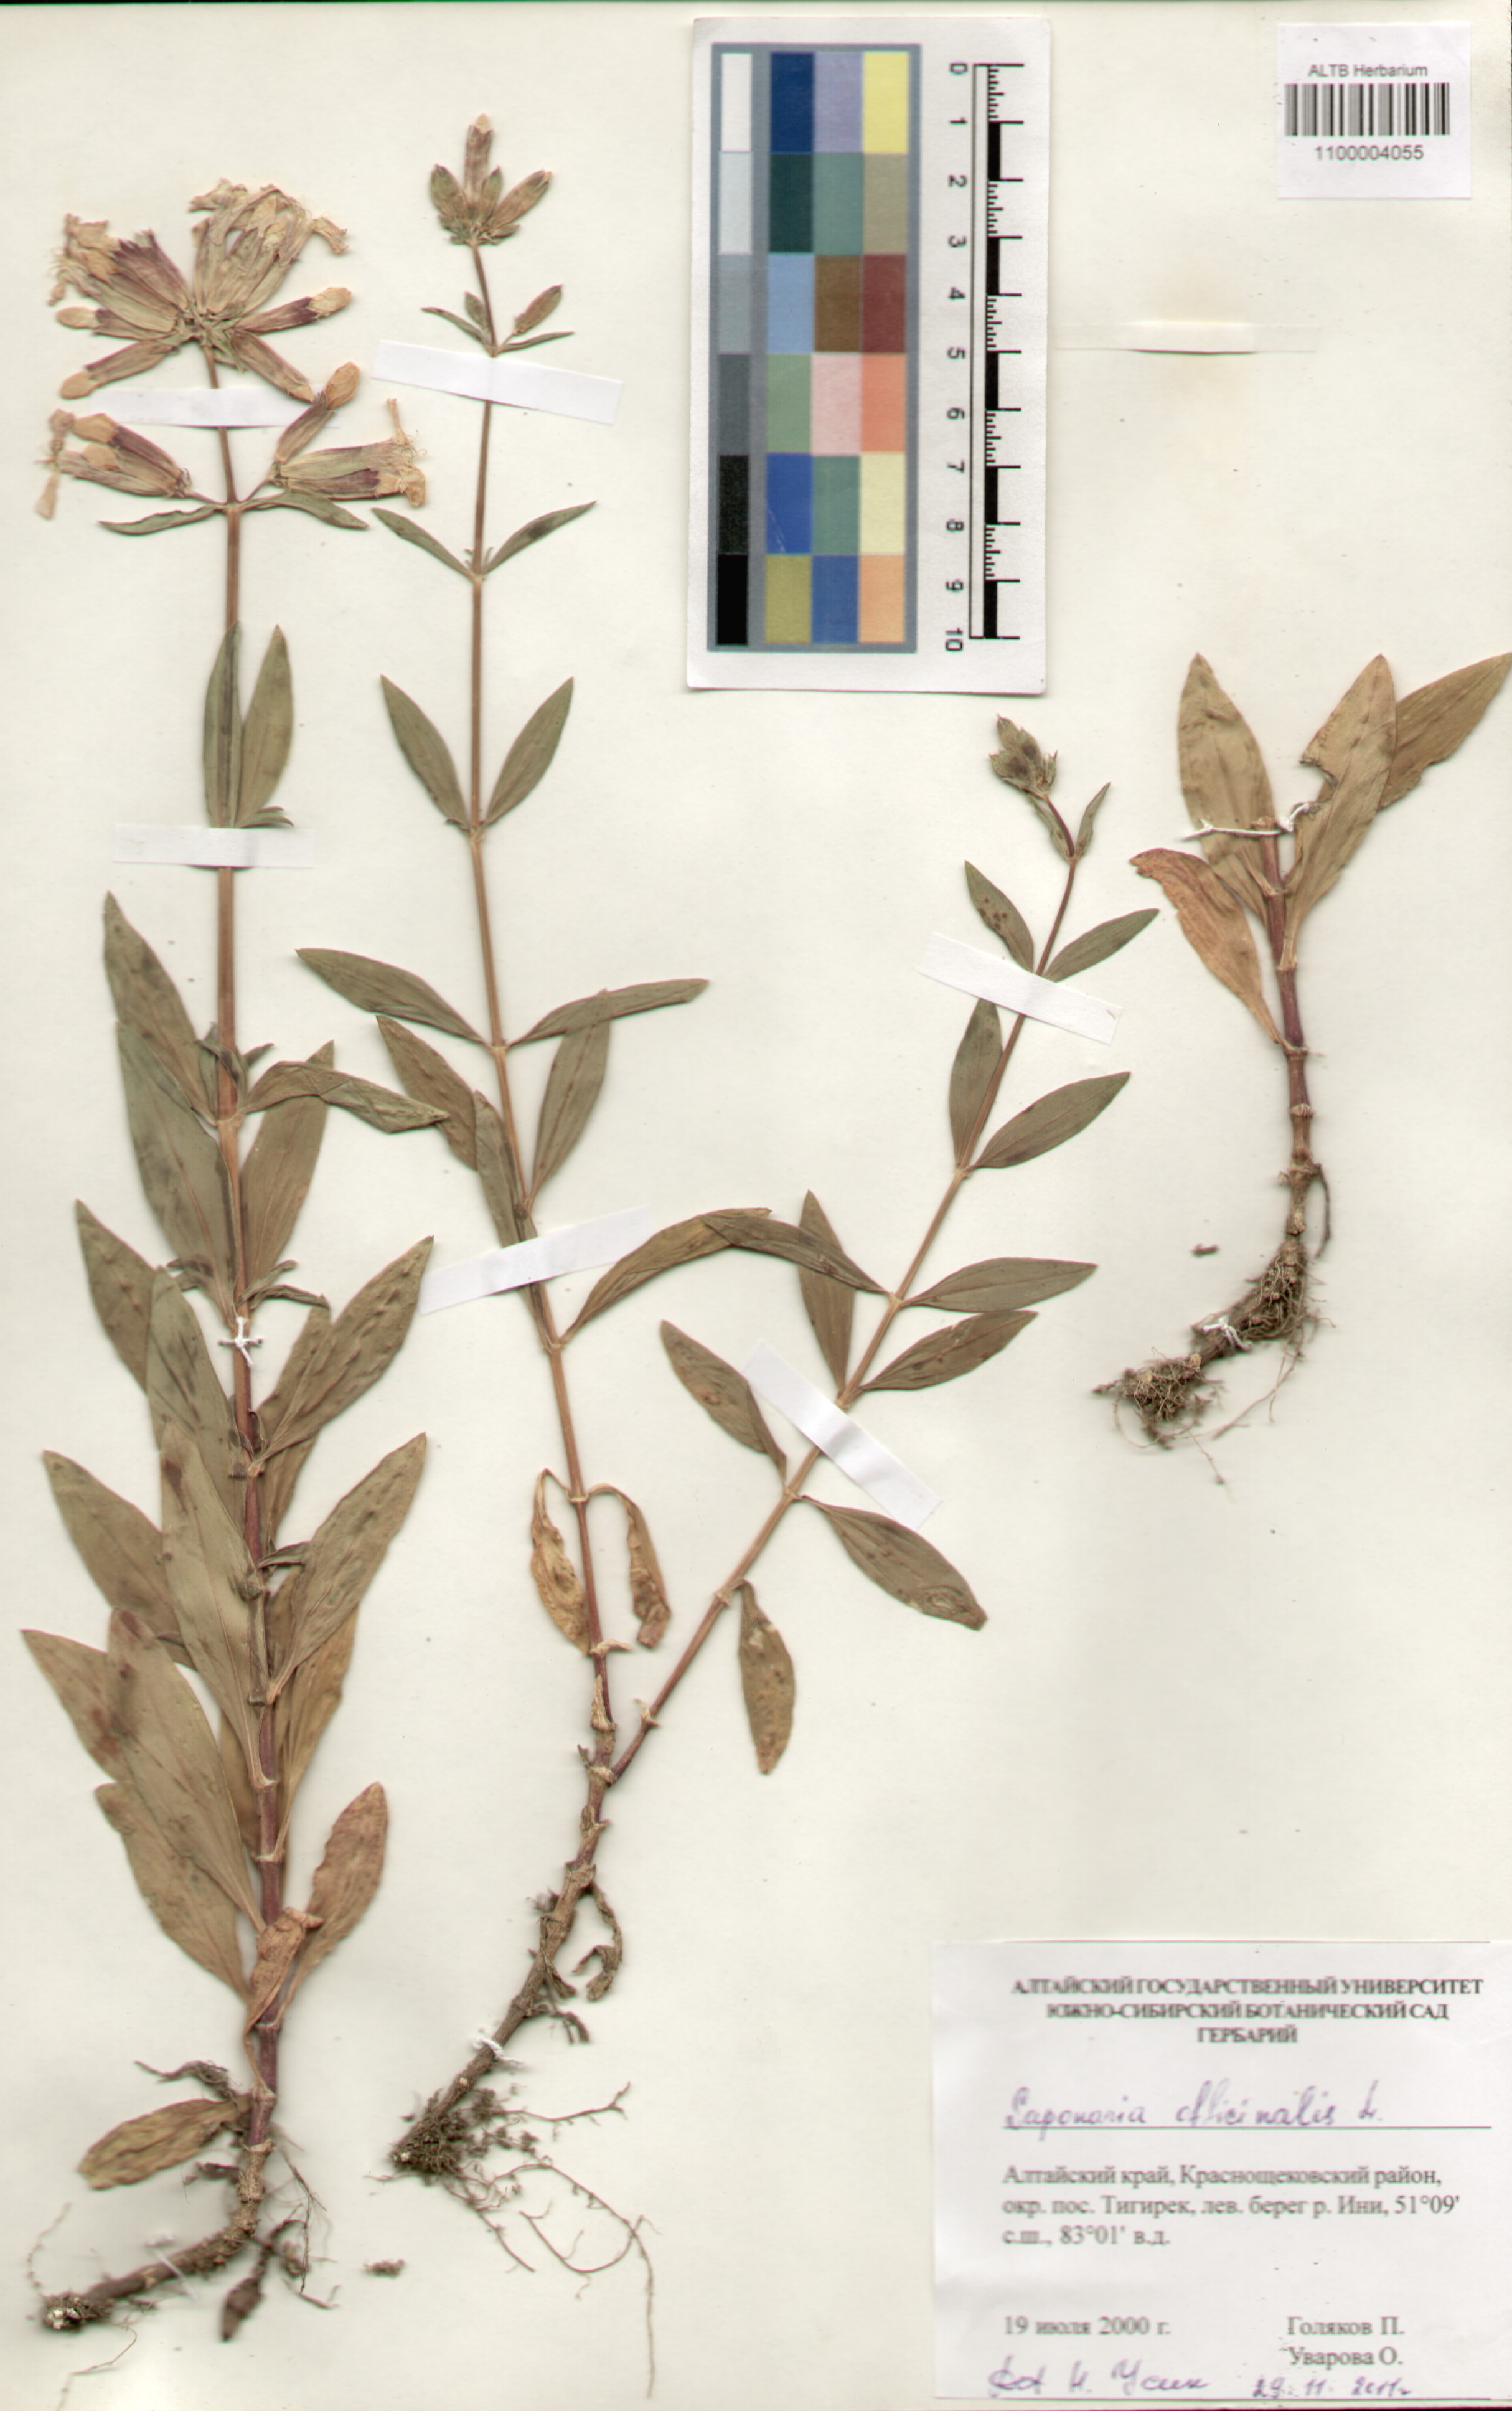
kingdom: Plantae
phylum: Tracheophyta
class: Magnoliopsida
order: Caryophyllales
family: Caryophyllaceae
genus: Saponaria
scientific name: Saponaria officinalis
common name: Soapwort
